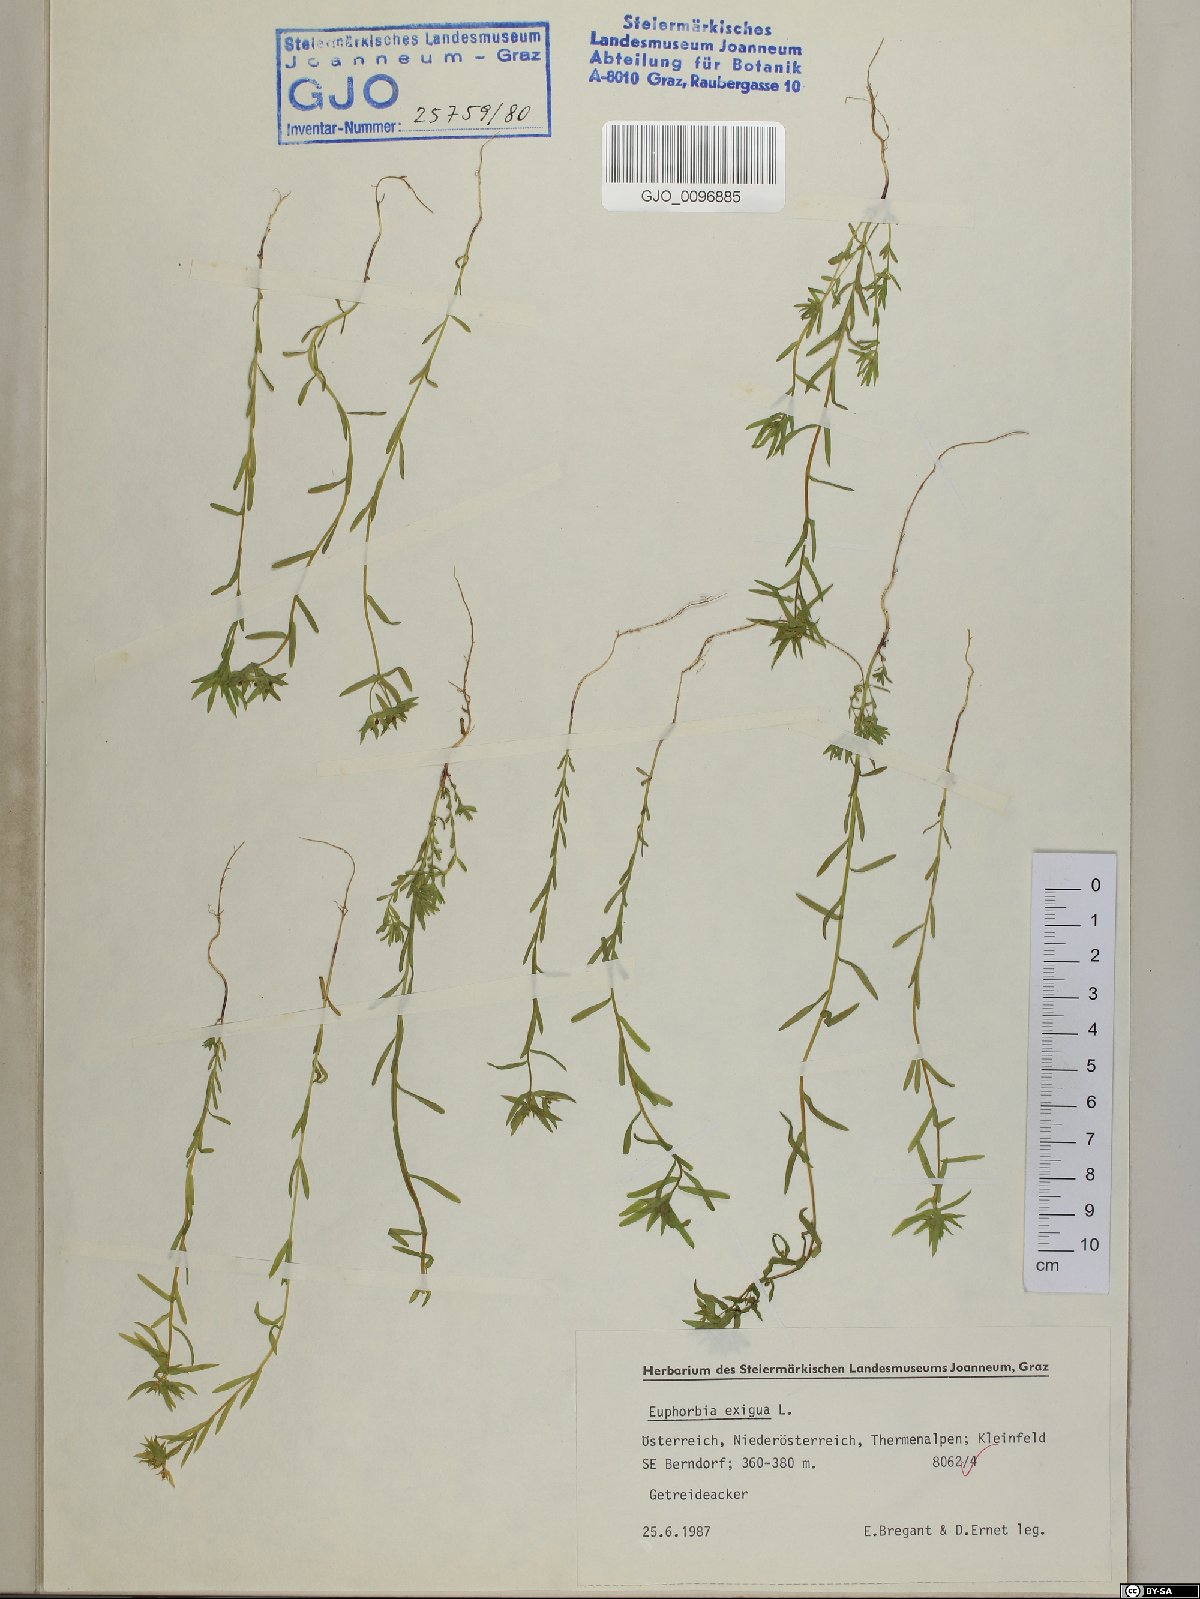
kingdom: Plantae
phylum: Tracheophyta
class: Magnoliopsida
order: Malpighiales
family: Euphorbiaceae
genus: Euphorbia
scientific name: Euphorbia exigua
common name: Dwarf spurge
